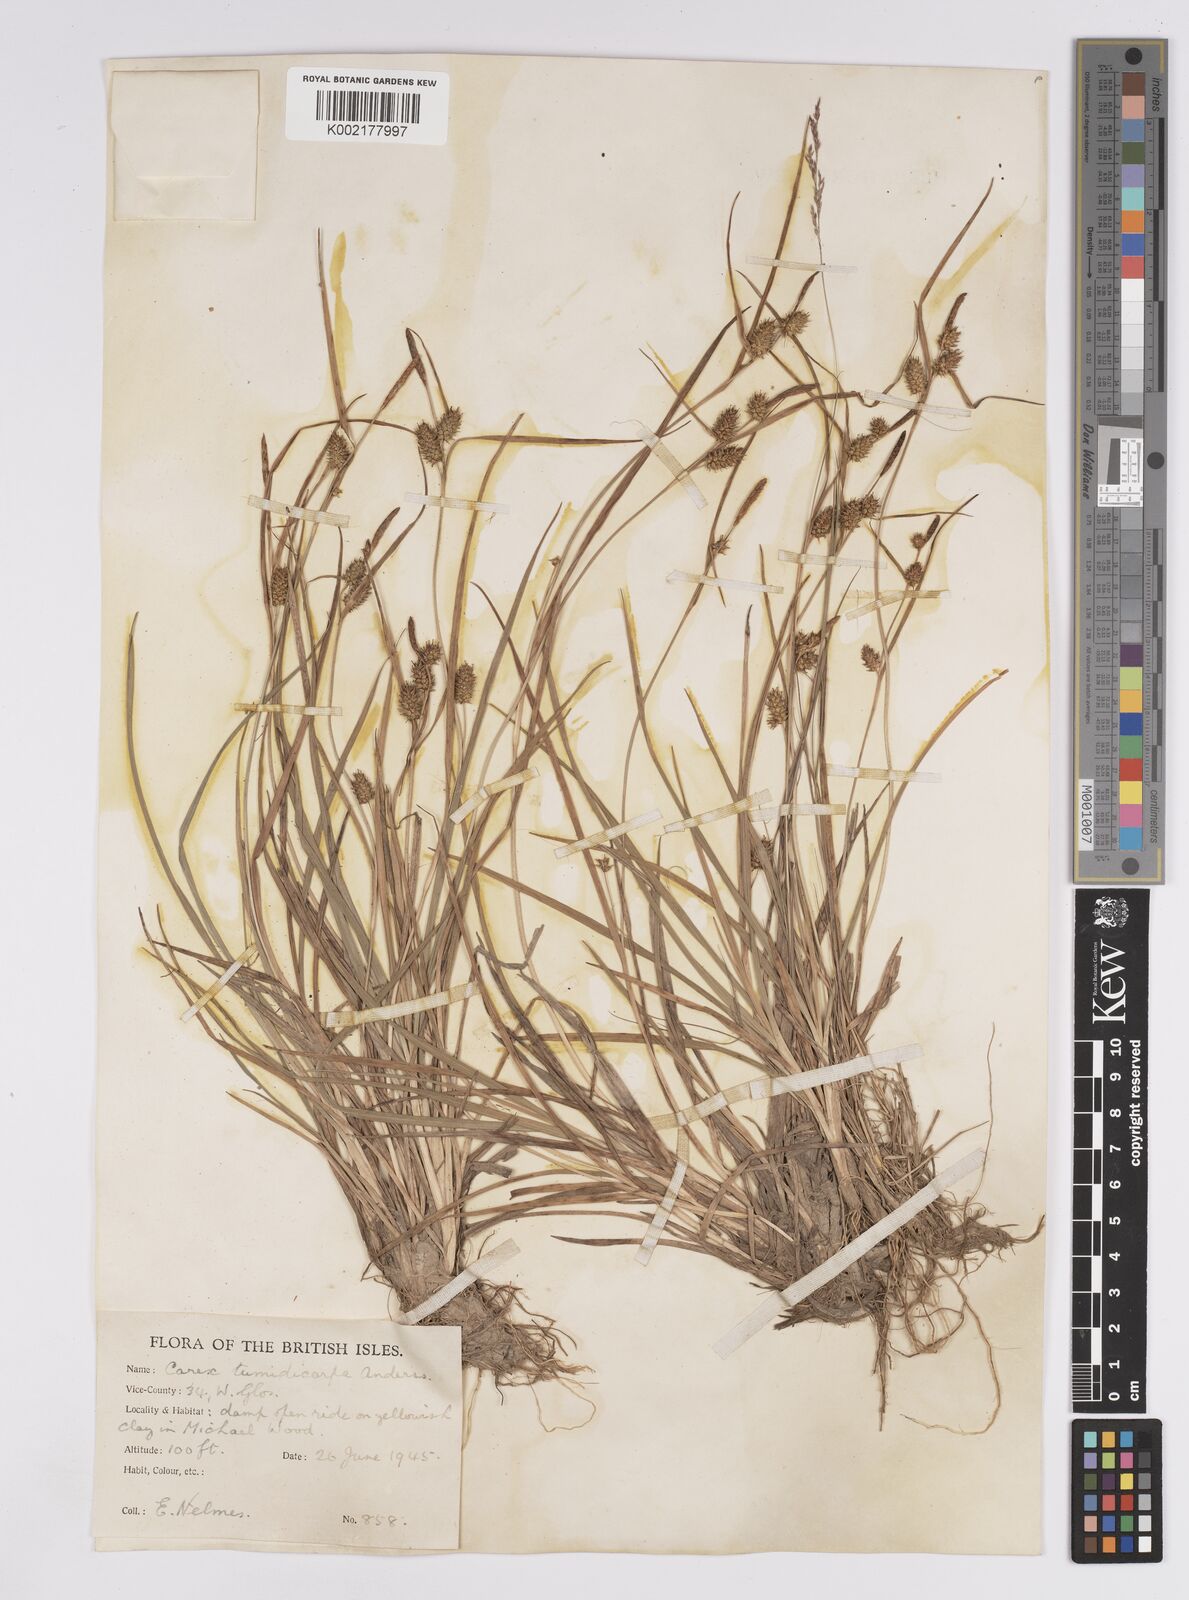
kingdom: Plantae
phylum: Tracheophyta
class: Liliopsida
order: Poales
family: Cyperaceae
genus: Carex
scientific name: Carex demissa
